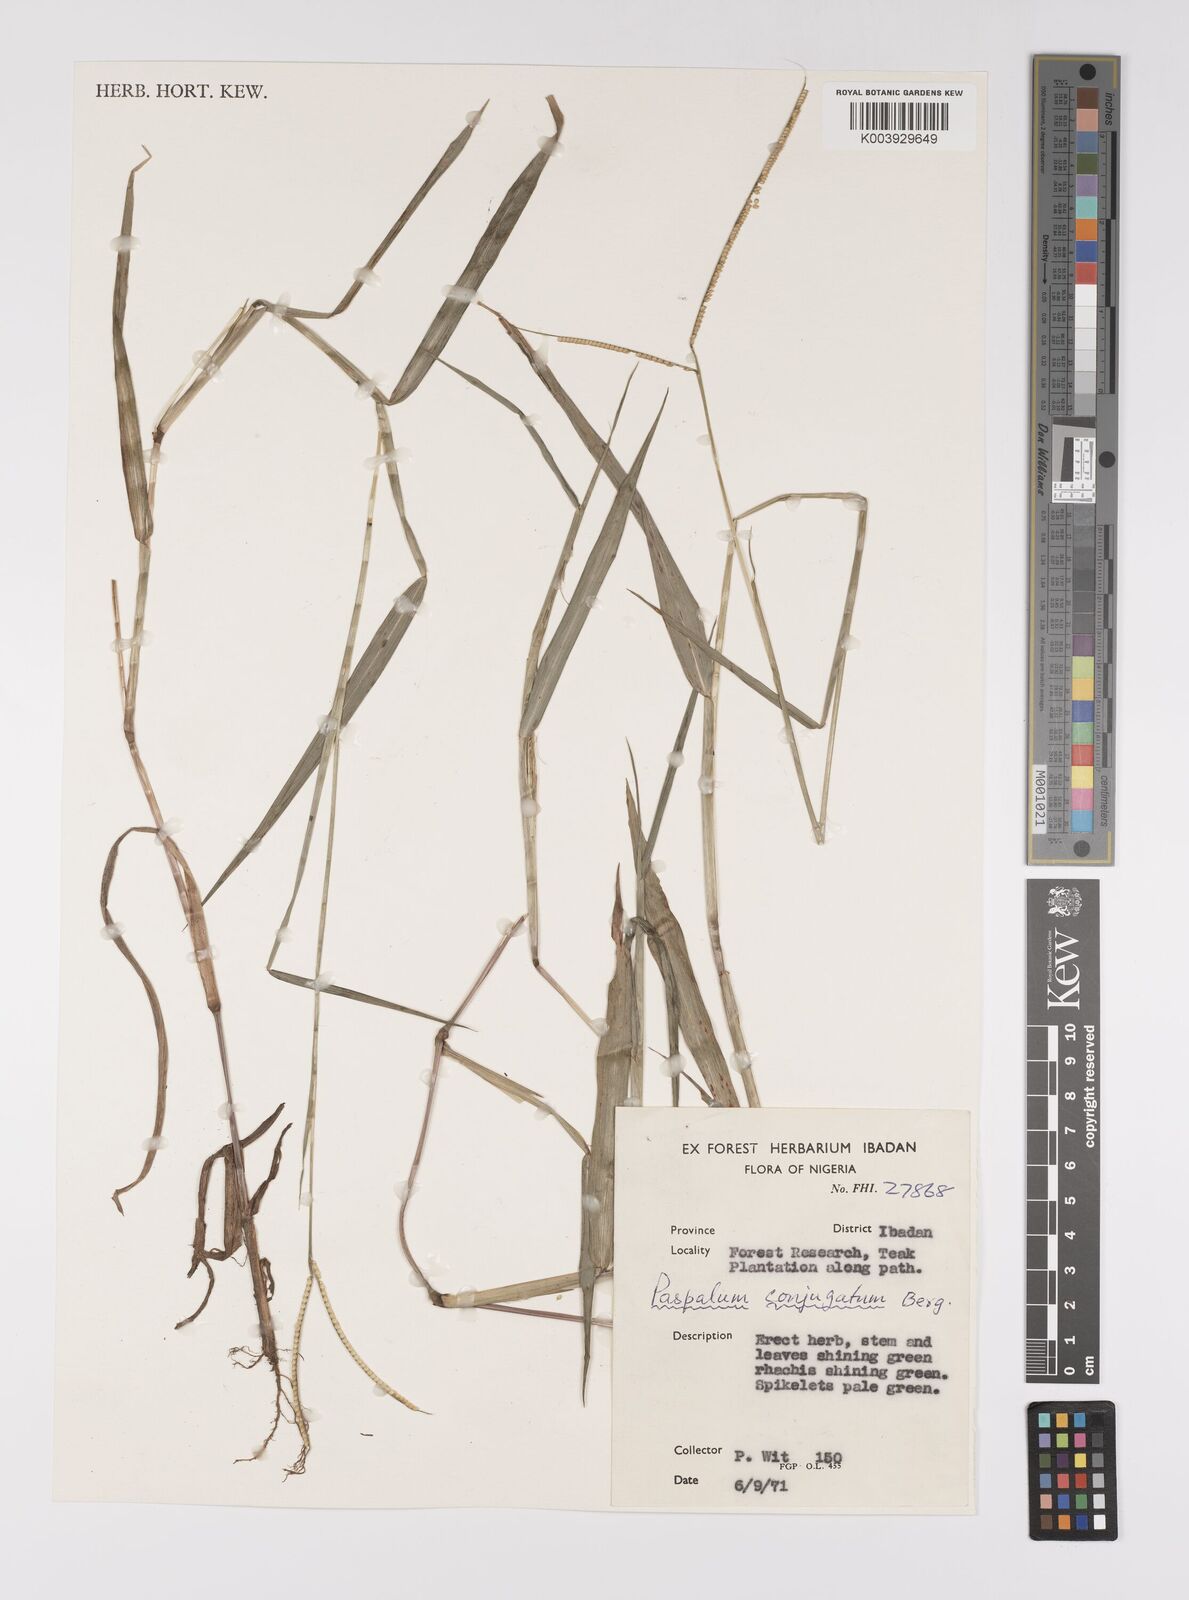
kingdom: Plantae
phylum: Tracheophyta
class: Liliopsida
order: Poales
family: Poaceae
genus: Paspalum
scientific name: Paspalum conjugatum
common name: Hilograss
